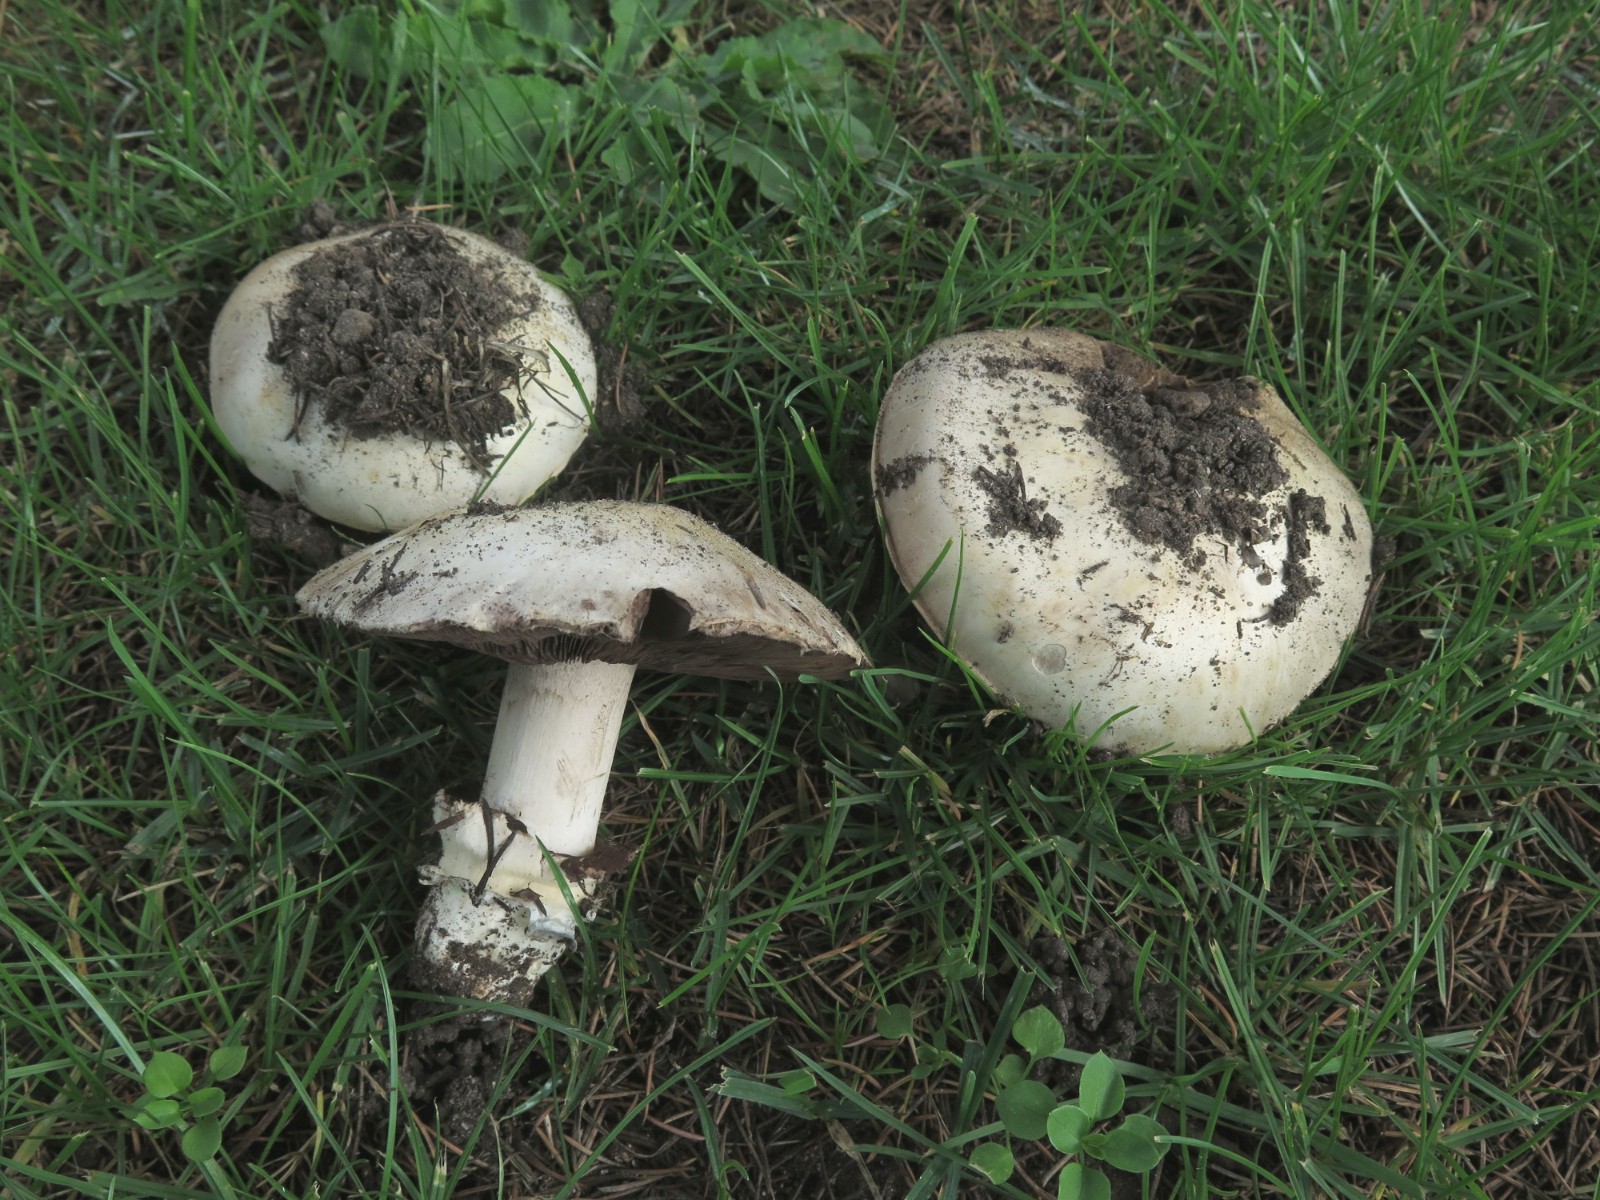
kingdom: Fungi
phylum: Basidiomycota
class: Agaricomycetes
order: Agaricales
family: Agaricaceae
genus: Agaricus
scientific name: Agaricus bitorquis
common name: vej-champignon
